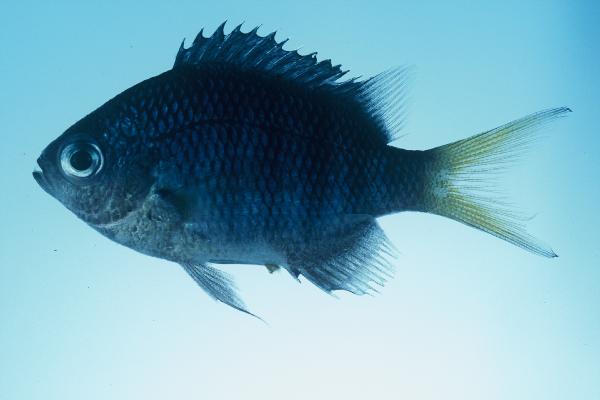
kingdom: Animalia
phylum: Chordata
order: Perciformes
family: Pomacentridae
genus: Abudefduf
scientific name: Abudefduf margariteus
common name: Pearly sergeant
